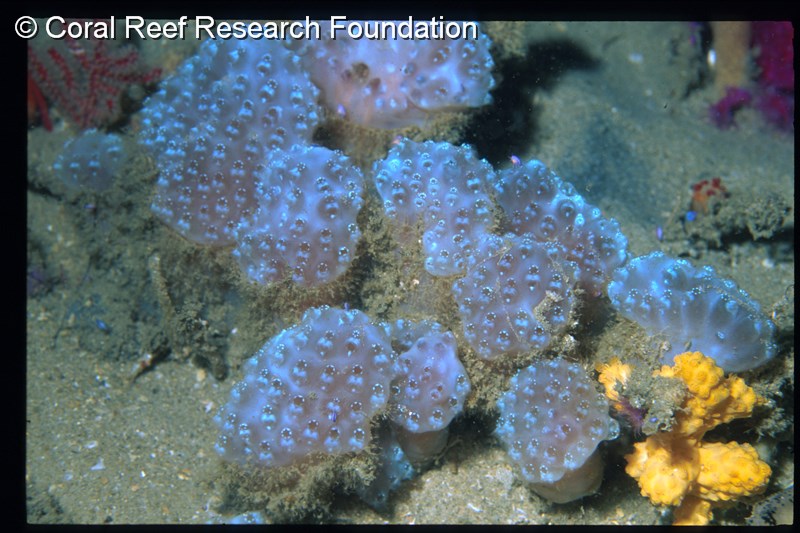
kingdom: Animalia
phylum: Chordata
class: Ascidiacea
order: Aplousobranchia
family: Polycitoridae
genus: Polycitor
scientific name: Polycitor
